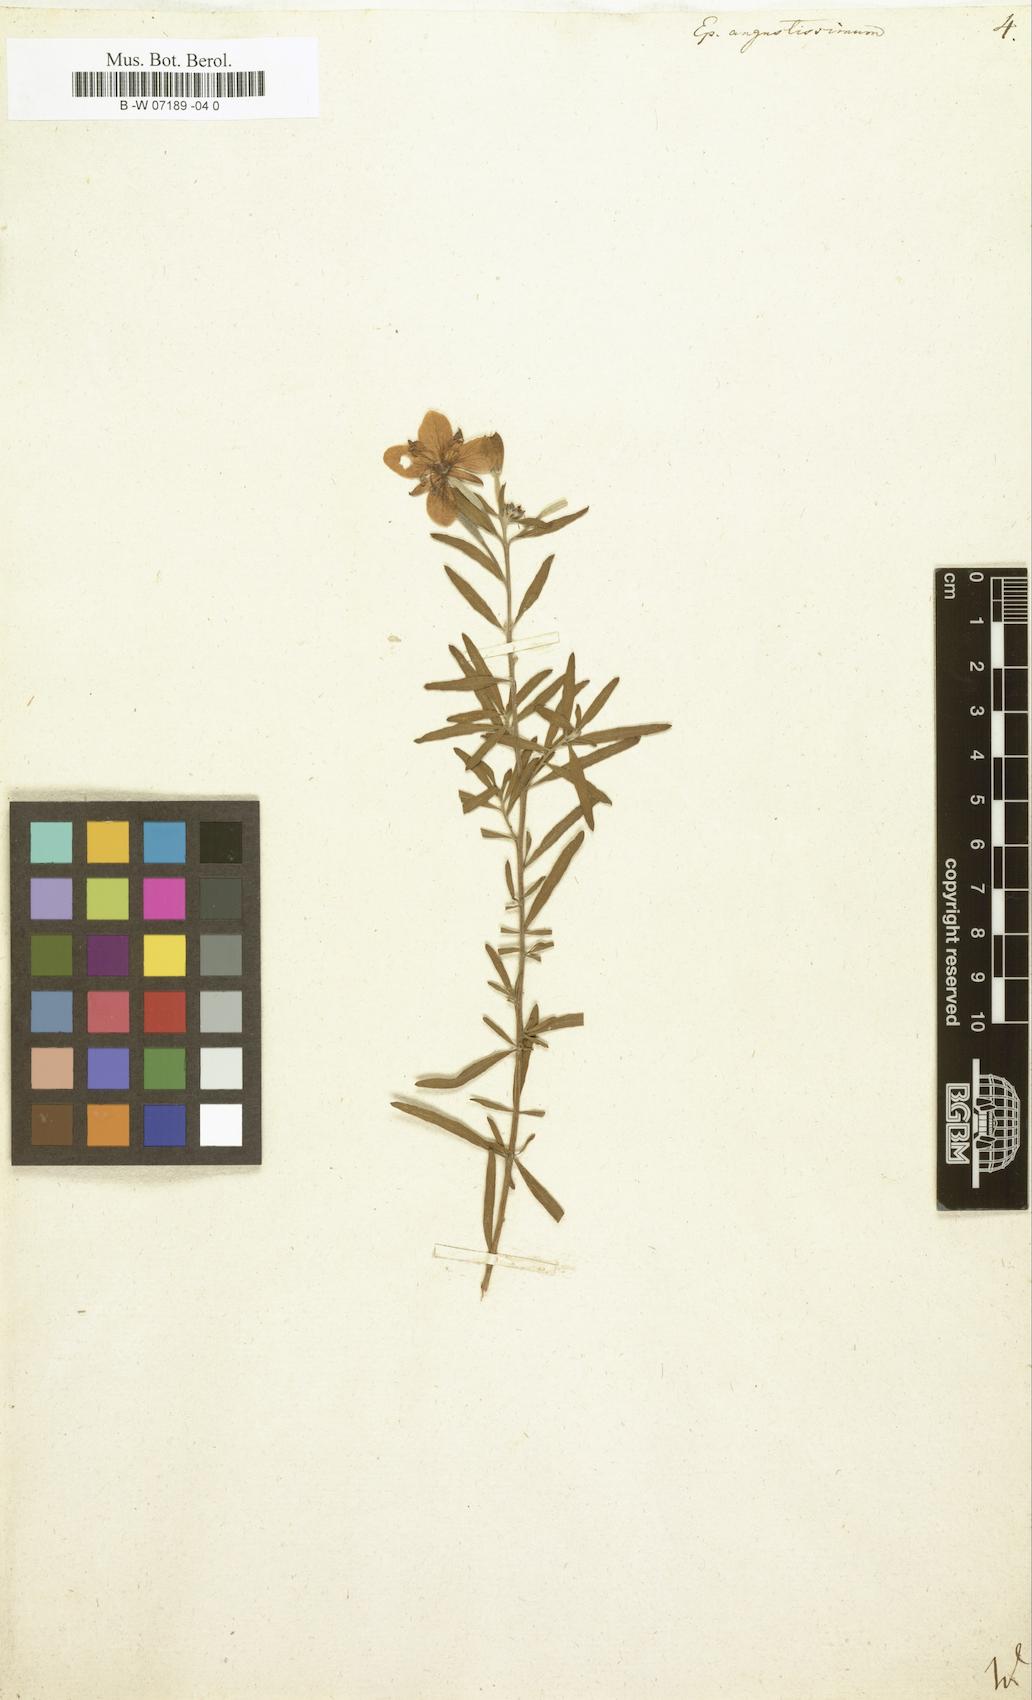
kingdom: Plantae
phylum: Tracheophyta
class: Magnoliopsida
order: Myrtales
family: Onagraceae
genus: Chamaenerion
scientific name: Chamaenerion angustifolium
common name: Fireweed
